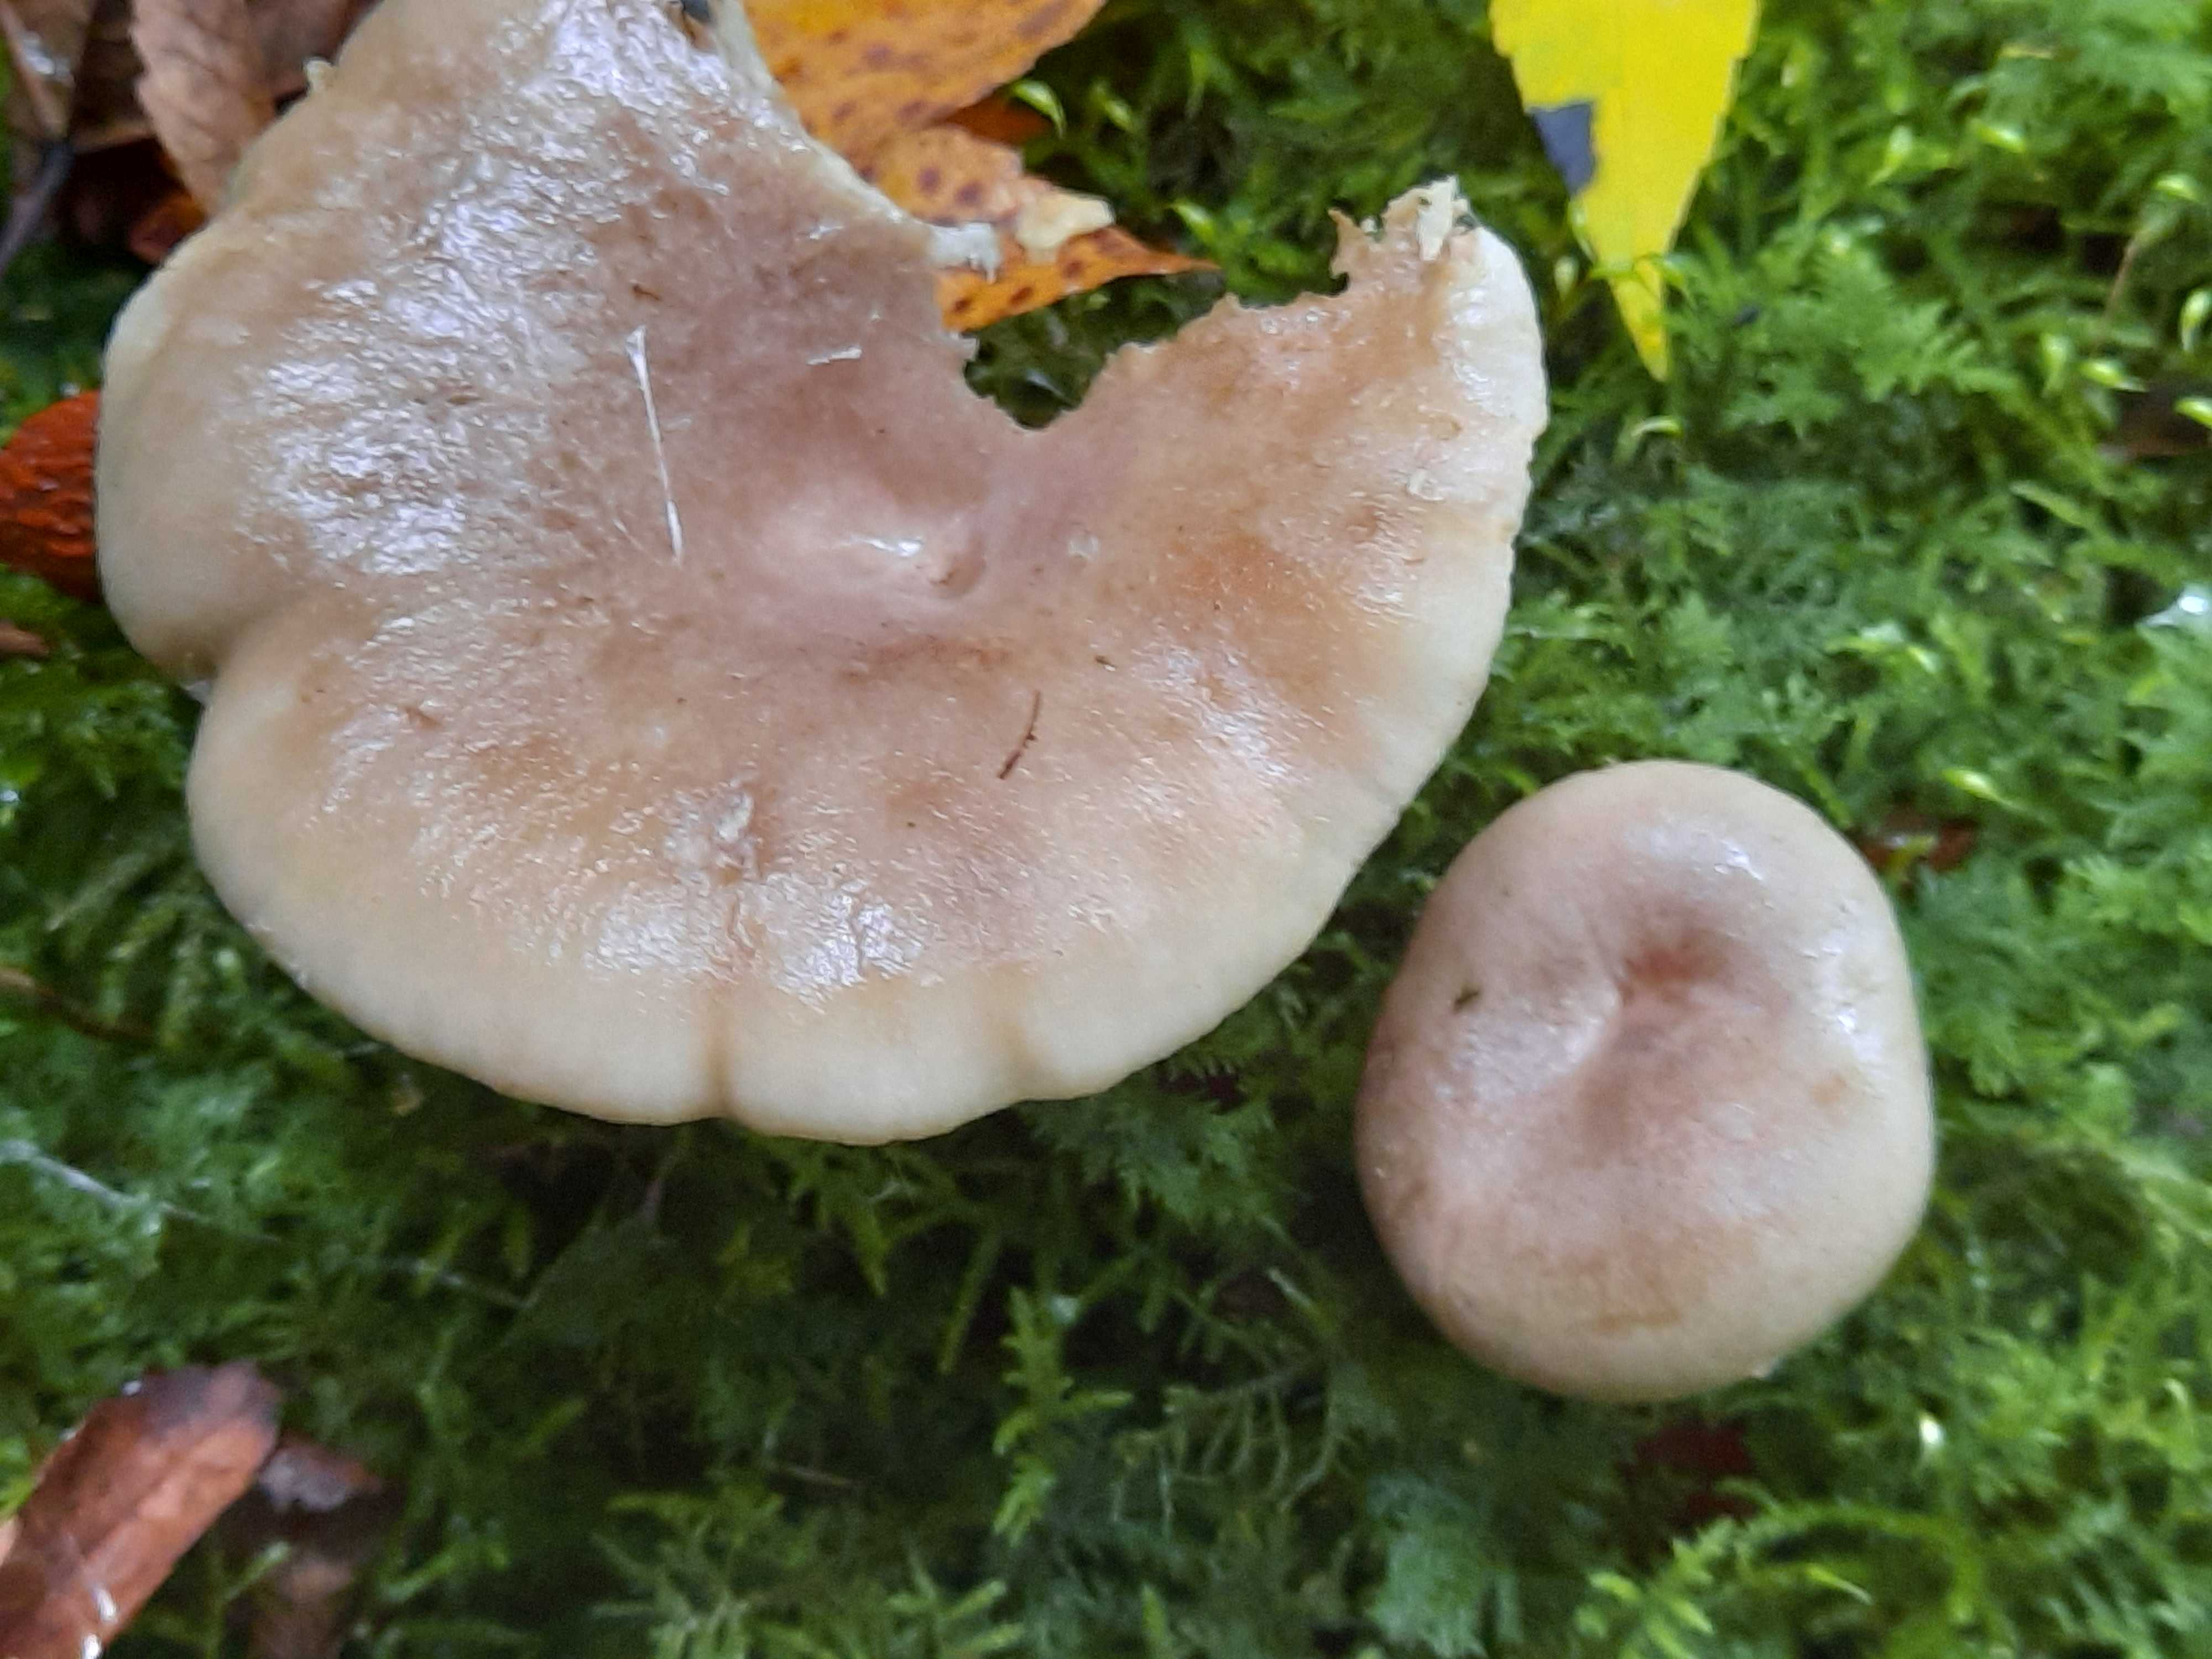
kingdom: Fungi
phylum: Basidiomycota
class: Agaricomycetes
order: Russulales
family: Russulaceae
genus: Lactarius
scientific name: Lactarius blennius
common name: dråbeplettet mælkehat
